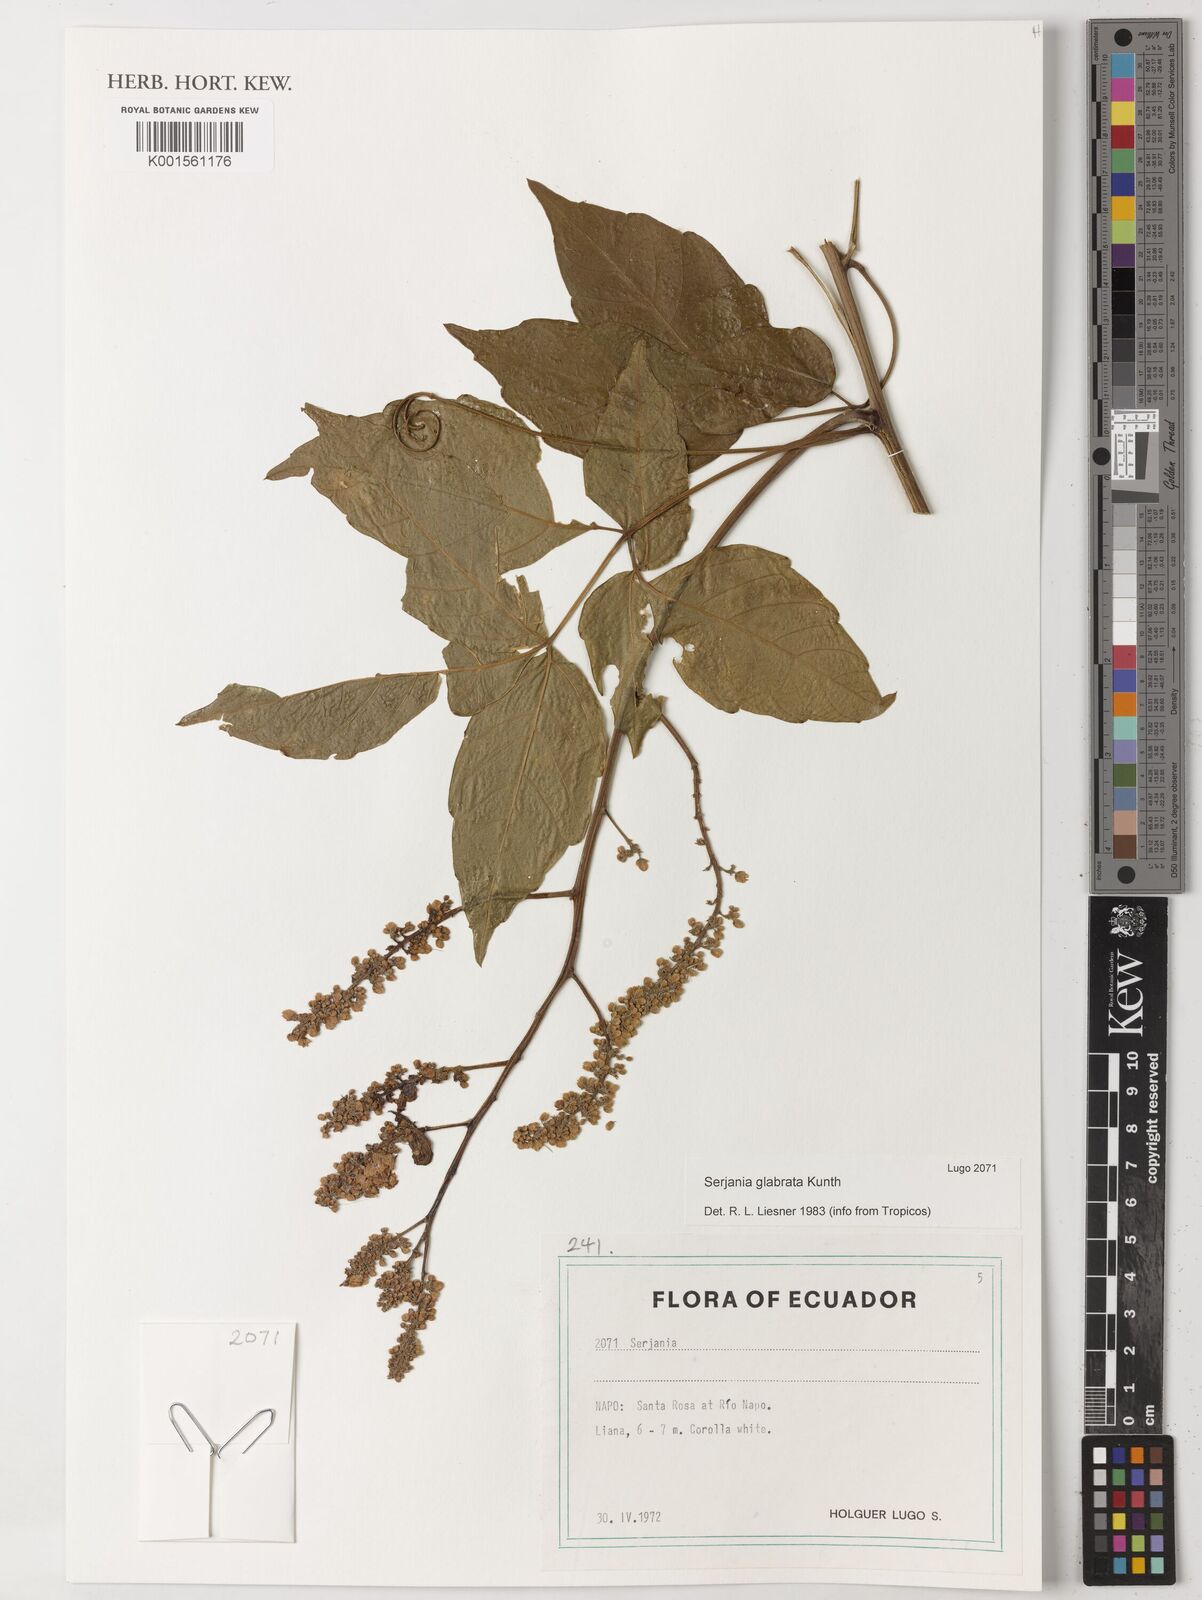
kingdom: Plantae
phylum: Tracheophyta
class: Magnoliopsida
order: Sapindales
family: Sapindaceae
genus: Serjania
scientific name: Serjania
